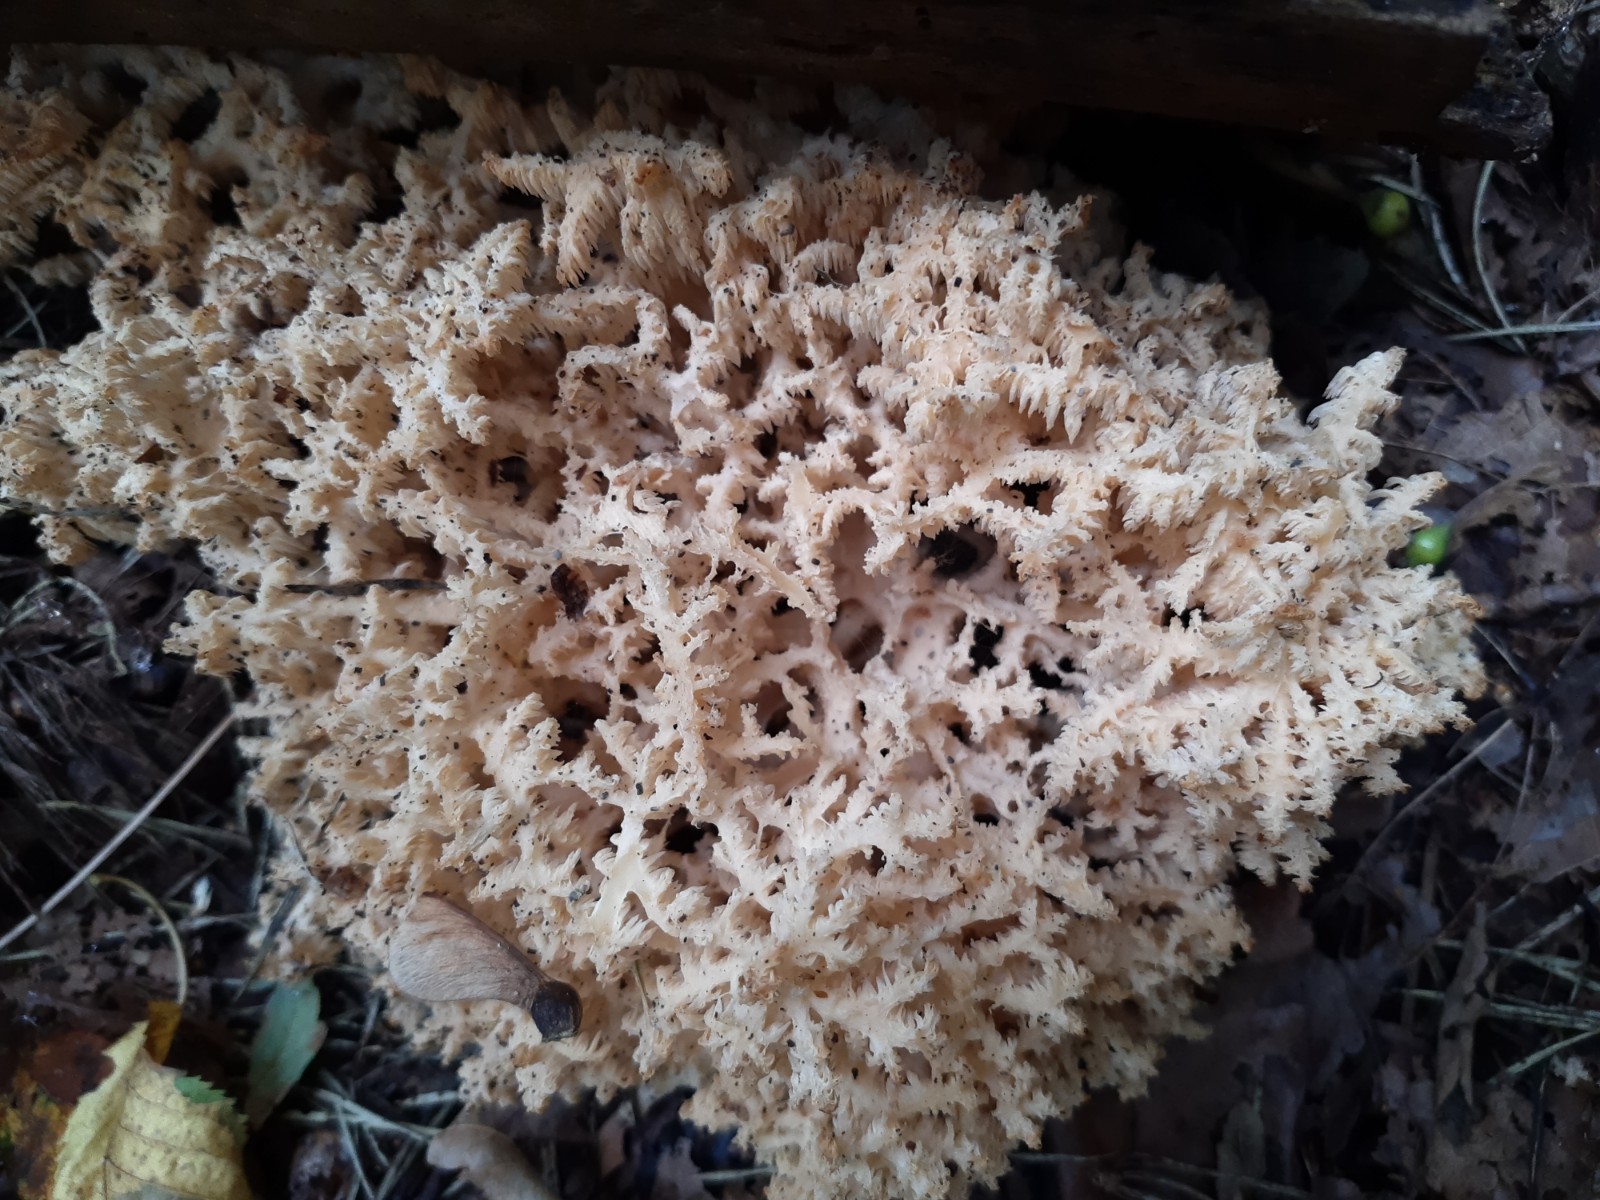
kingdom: Fungi
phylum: Basidiomycota
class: Agaricomycetes
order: Russulales
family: Hericiaceae
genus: Hericium
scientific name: Hericium coralloides
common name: koralpigsvamp
